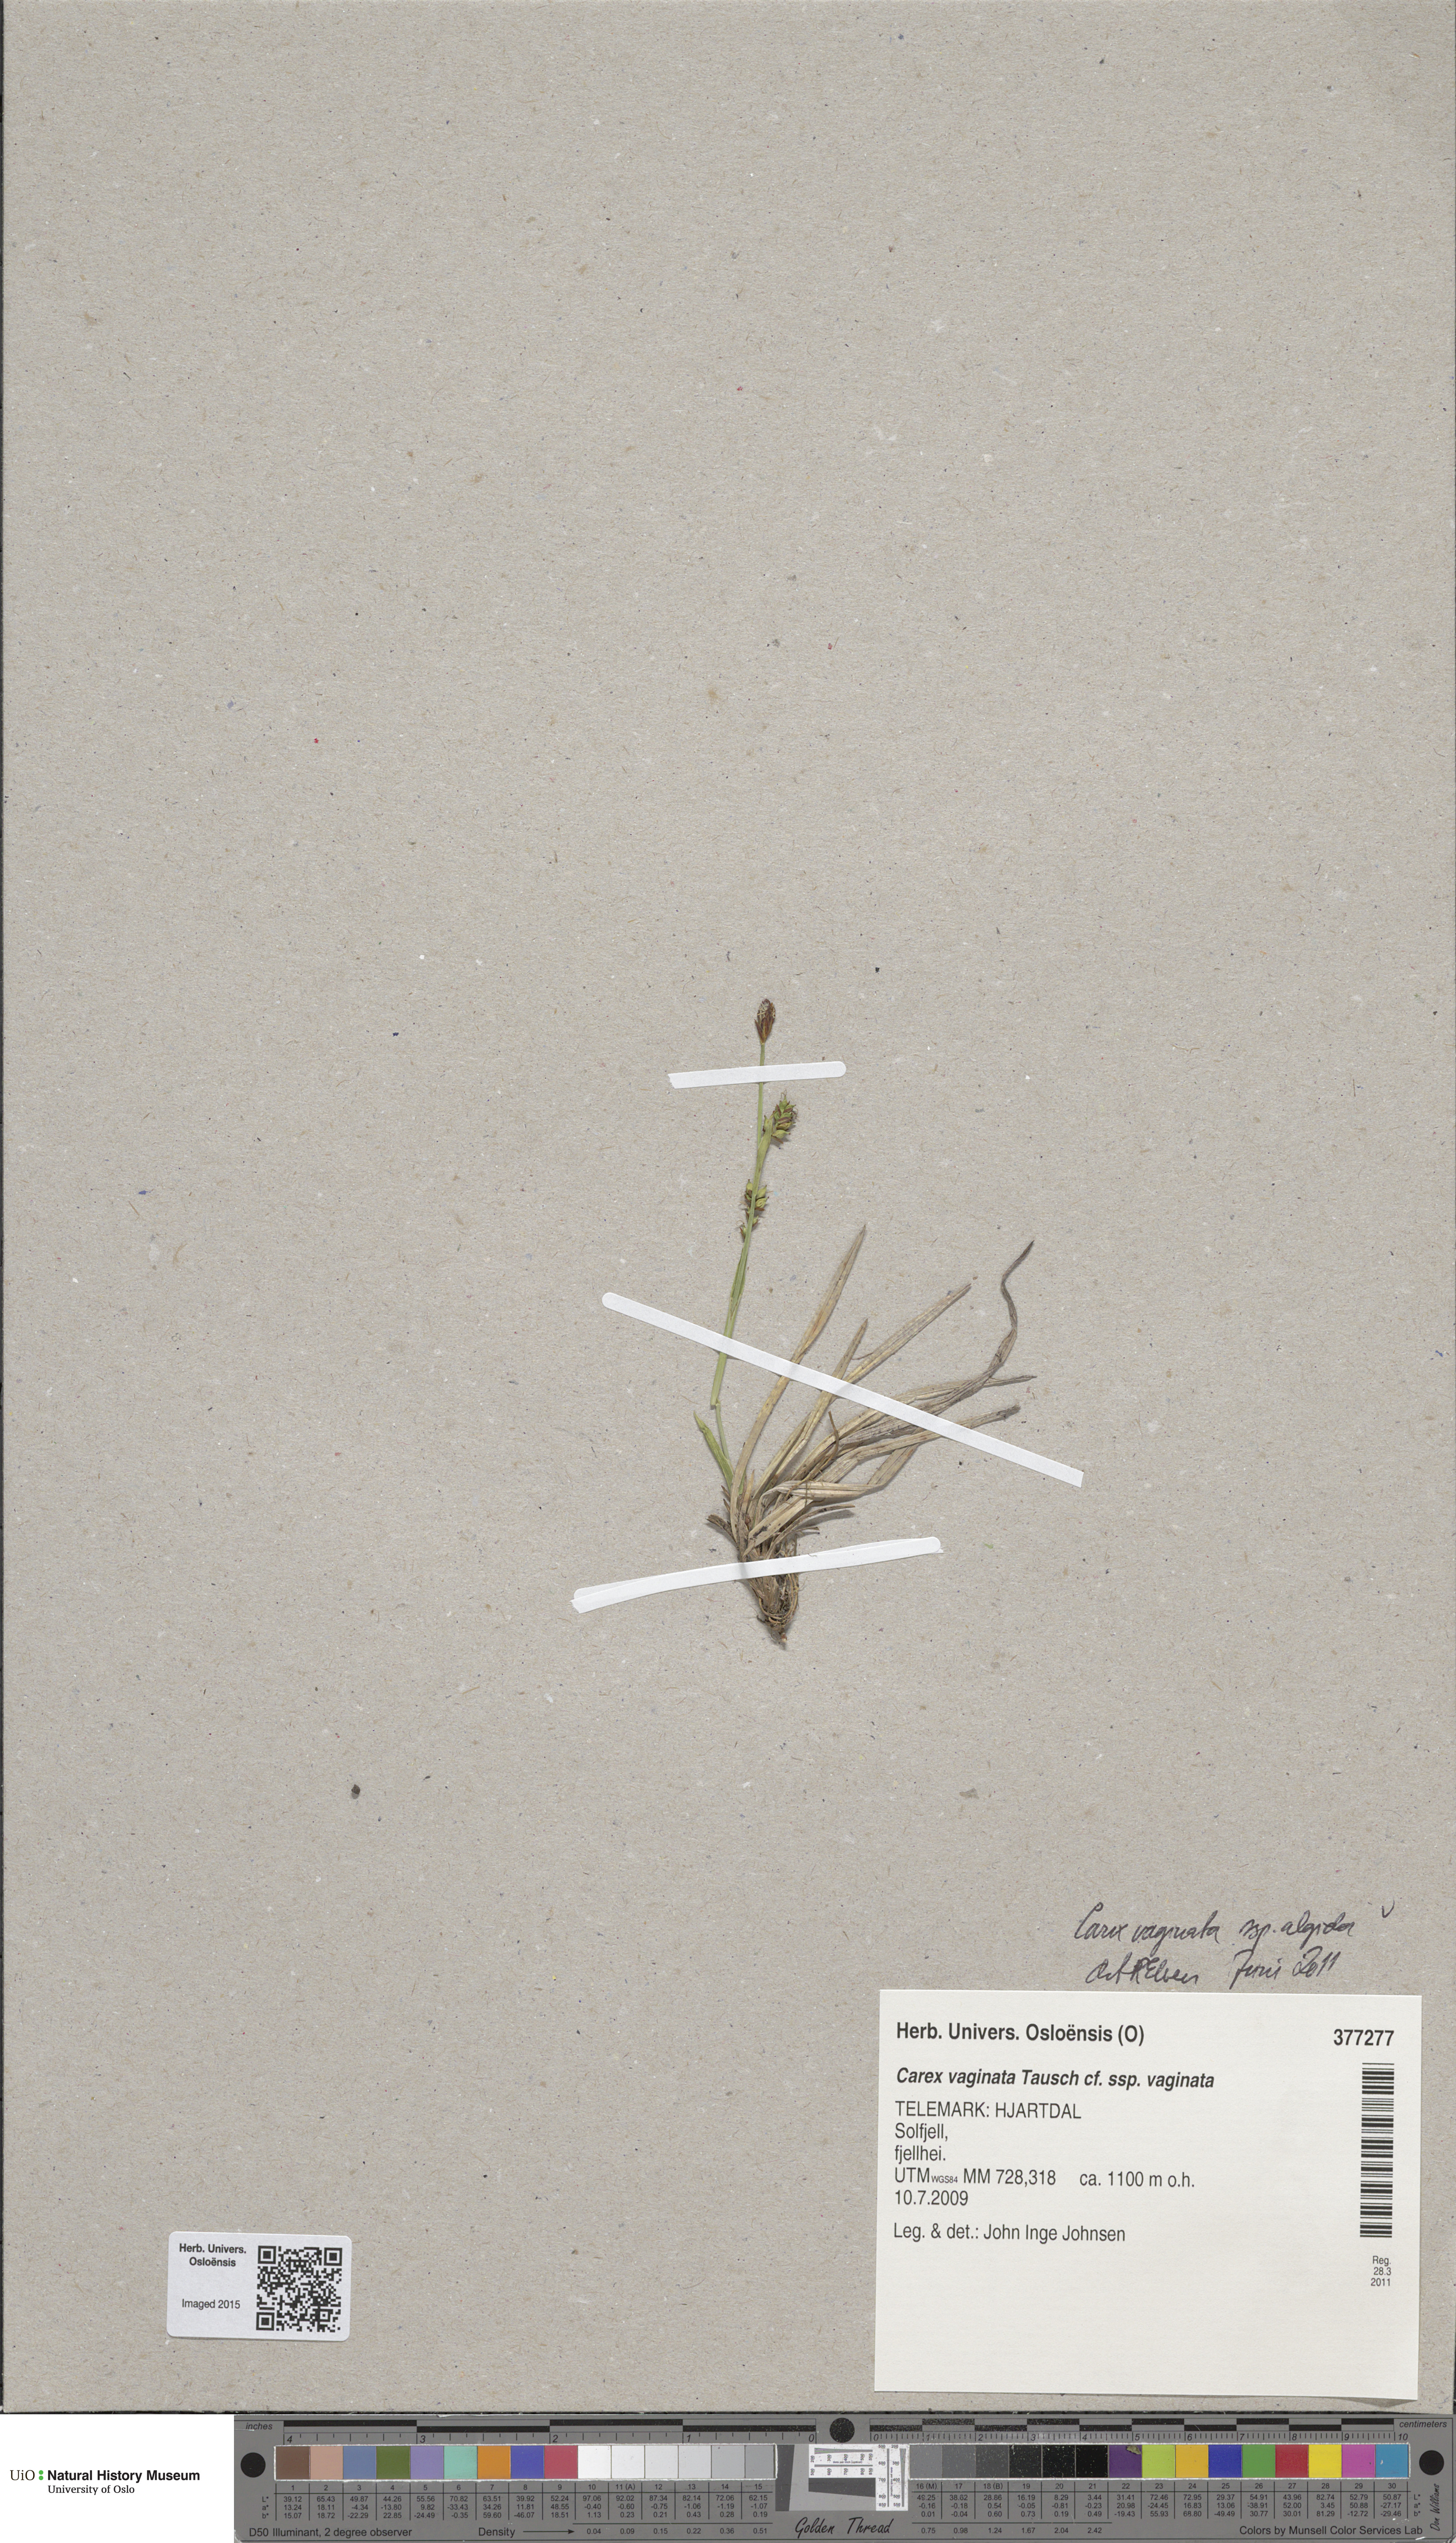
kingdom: Plantae
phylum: Tracheophyta
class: Liliopsida
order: Poales
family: Cyperaceae
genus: Carex
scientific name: Carex algida
